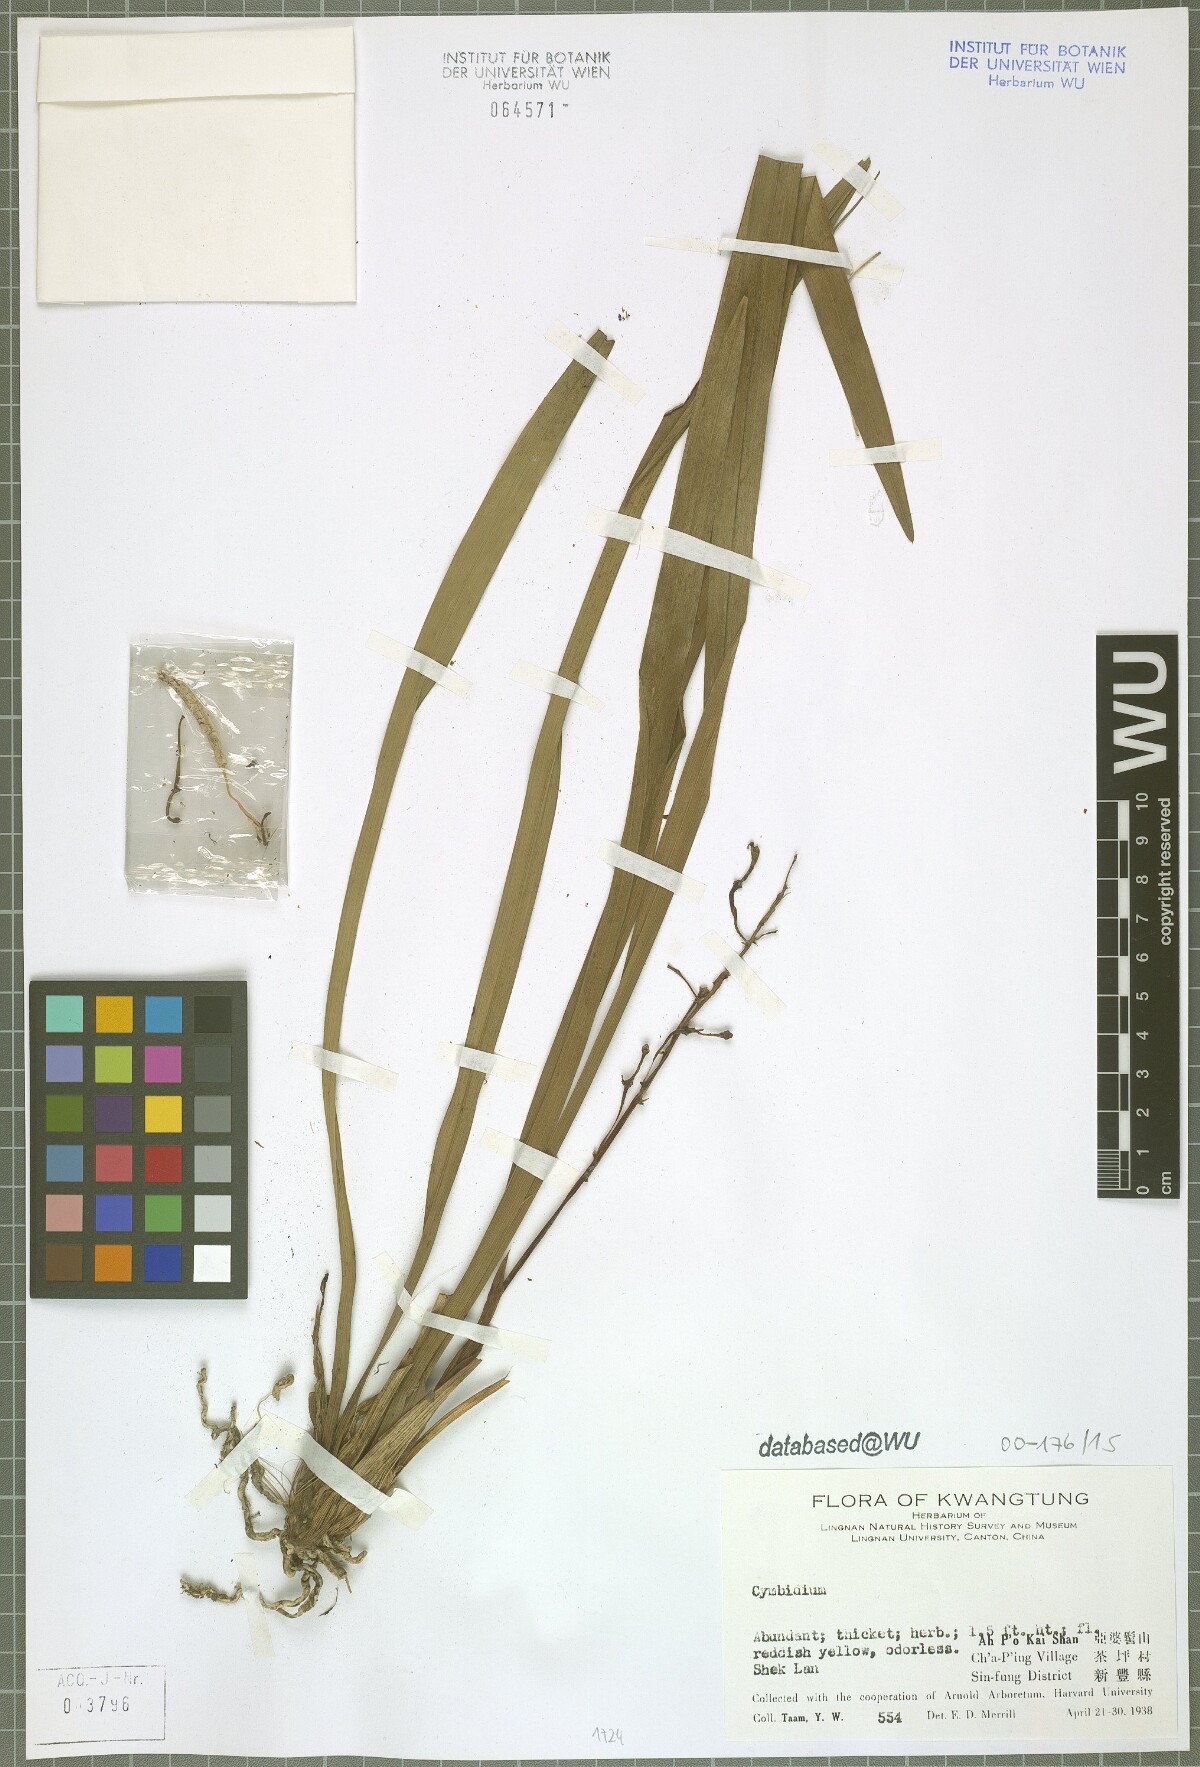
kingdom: Plantae
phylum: Tracheophyta
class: Liliopsida
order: Asparagales
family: Orchidaceae
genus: Cymbidium
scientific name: Cymbidium
